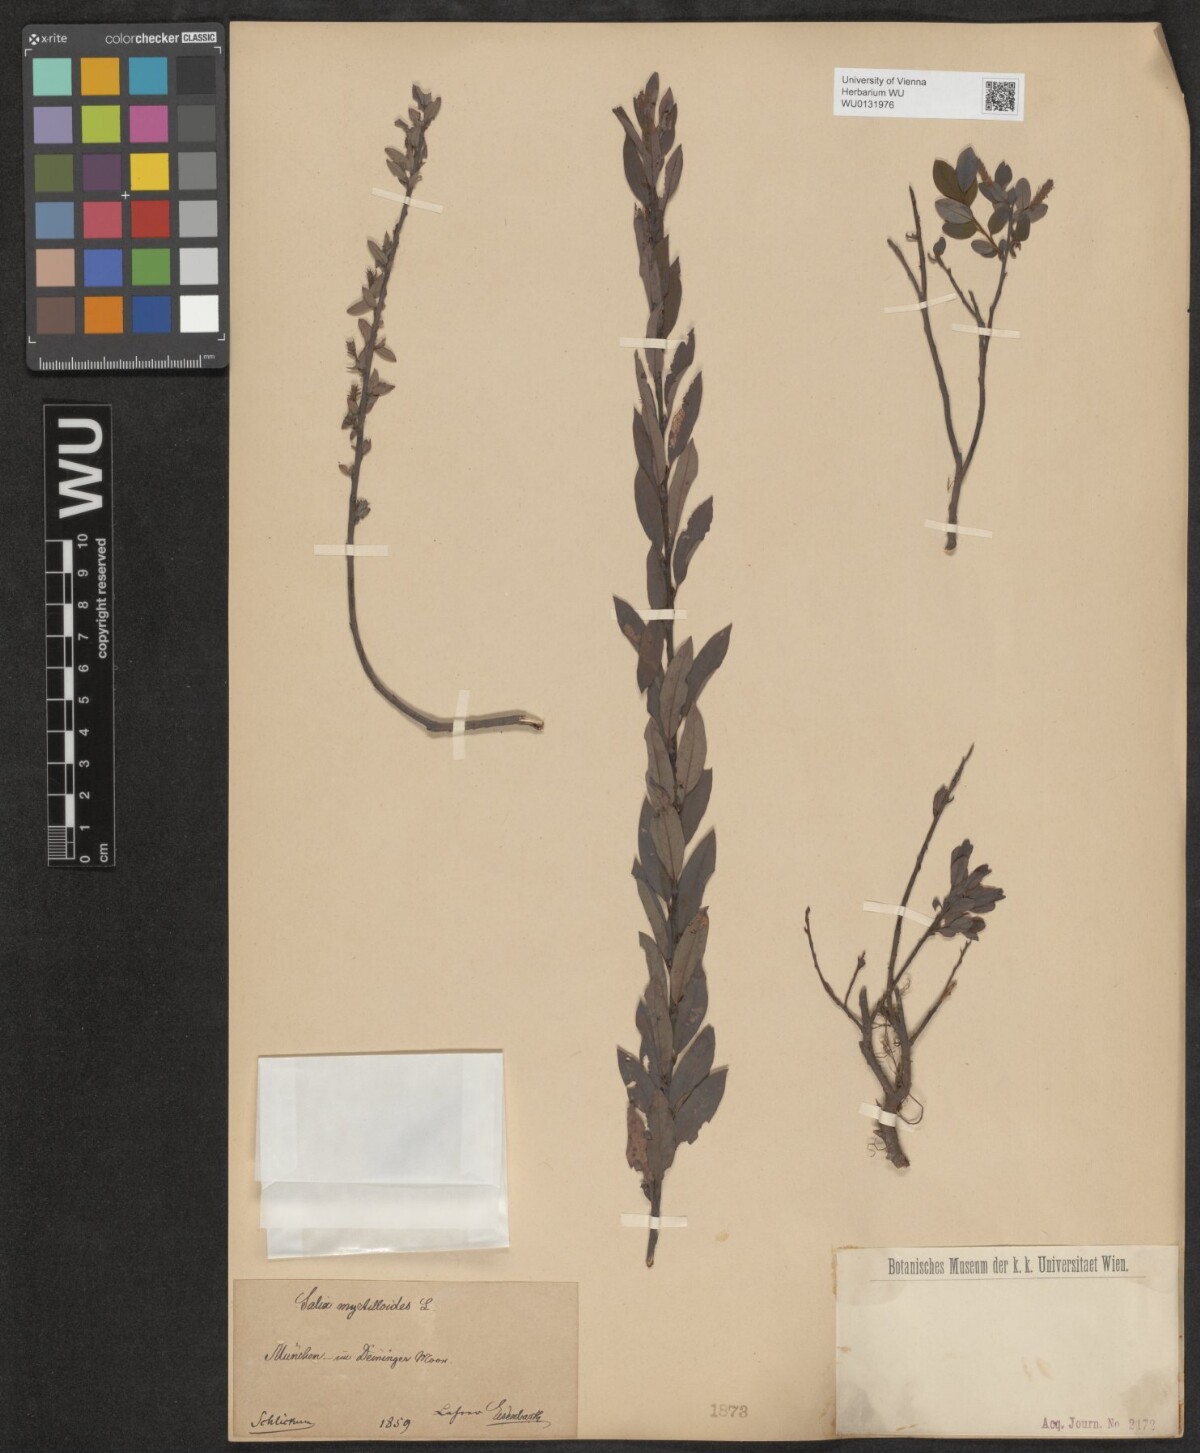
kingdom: Plantae
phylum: Tracheophyta
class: Magnoliopsida
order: Malpighiales
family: Salicaceae
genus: Salix
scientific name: Salix myrtilloides
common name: Myrtle-leaved willow
